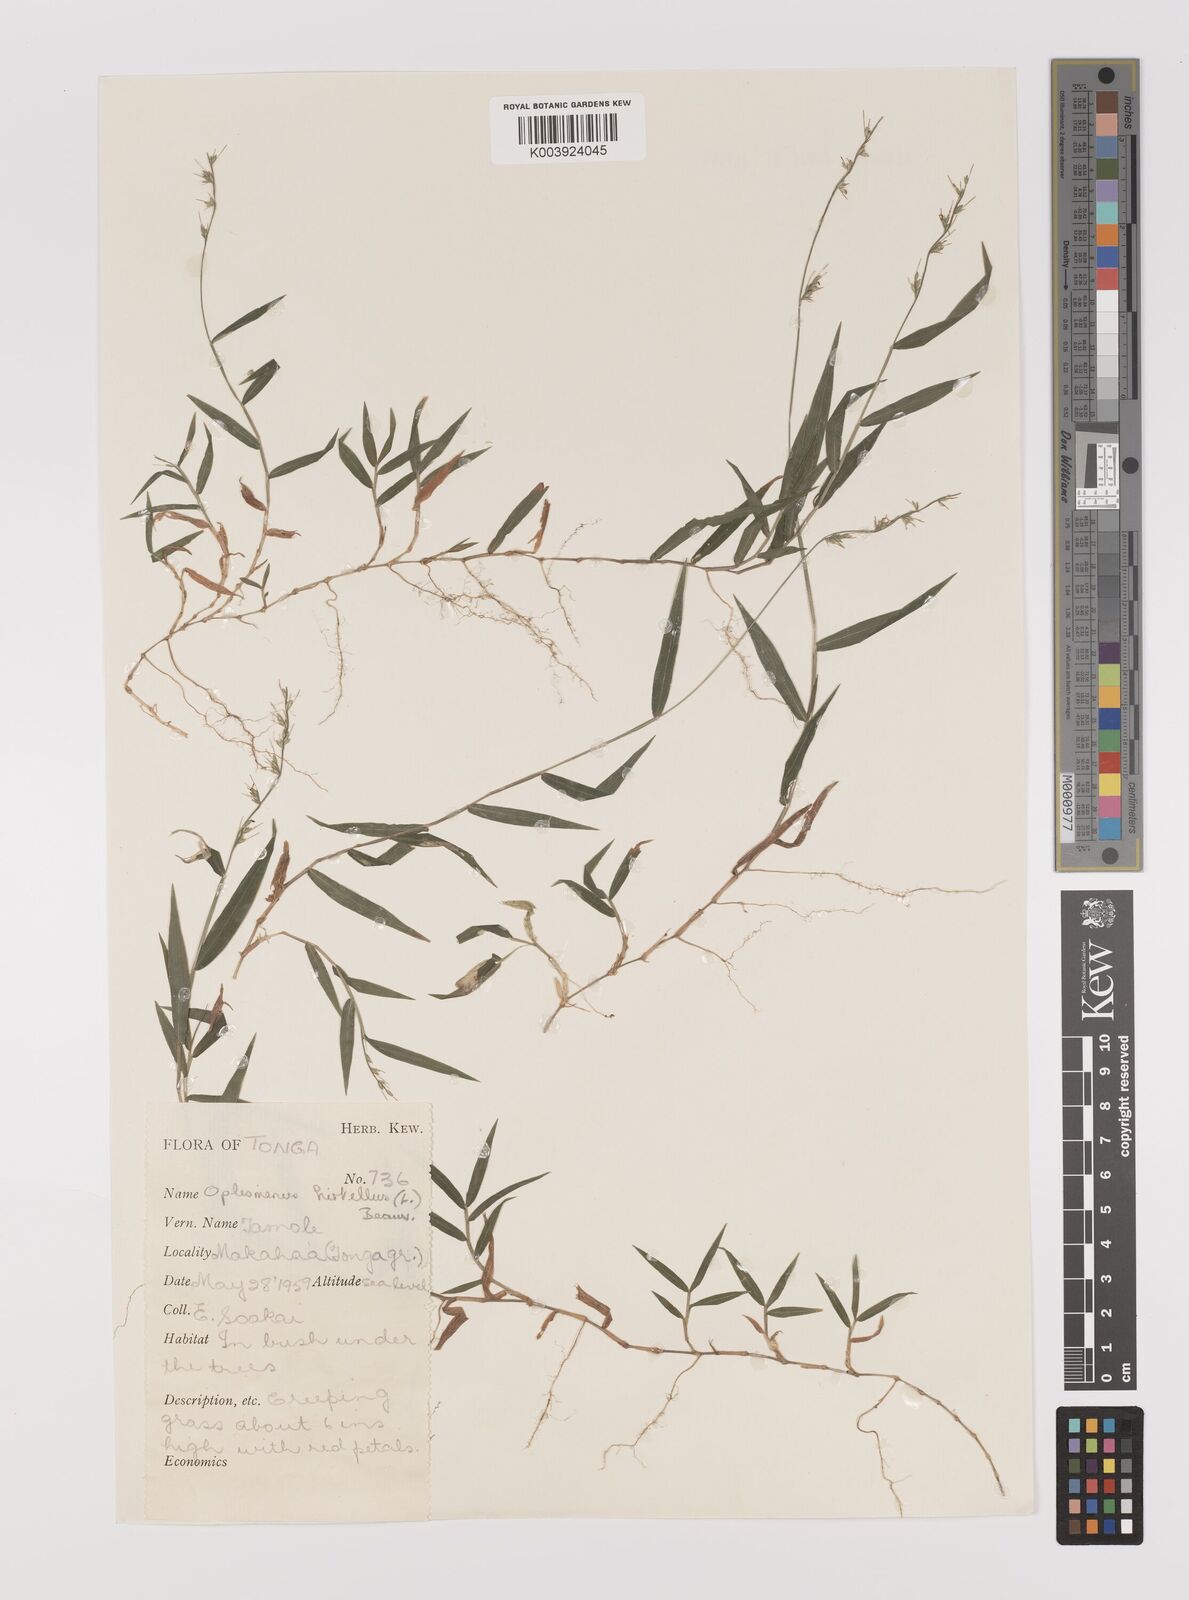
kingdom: Plantae
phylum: Tracheophyta
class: Liliopsida
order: Poales
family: Poaceae
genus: Oplismenus
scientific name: Oplismenus hirtellus
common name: Basketgrass
